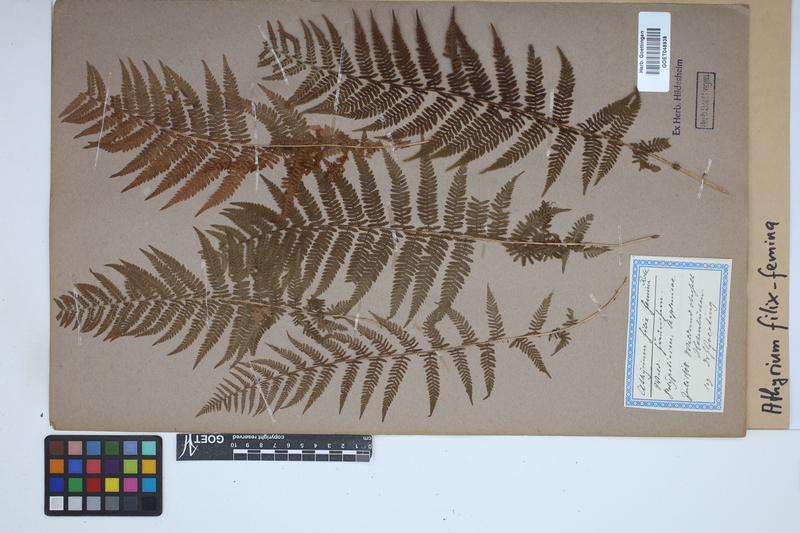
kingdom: Plantae
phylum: Tracheophyta
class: Polypodiopsida
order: Polypodiales
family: Athyriaceae
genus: Athyrium
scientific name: Athyrium filix-femina
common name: Lady fern
